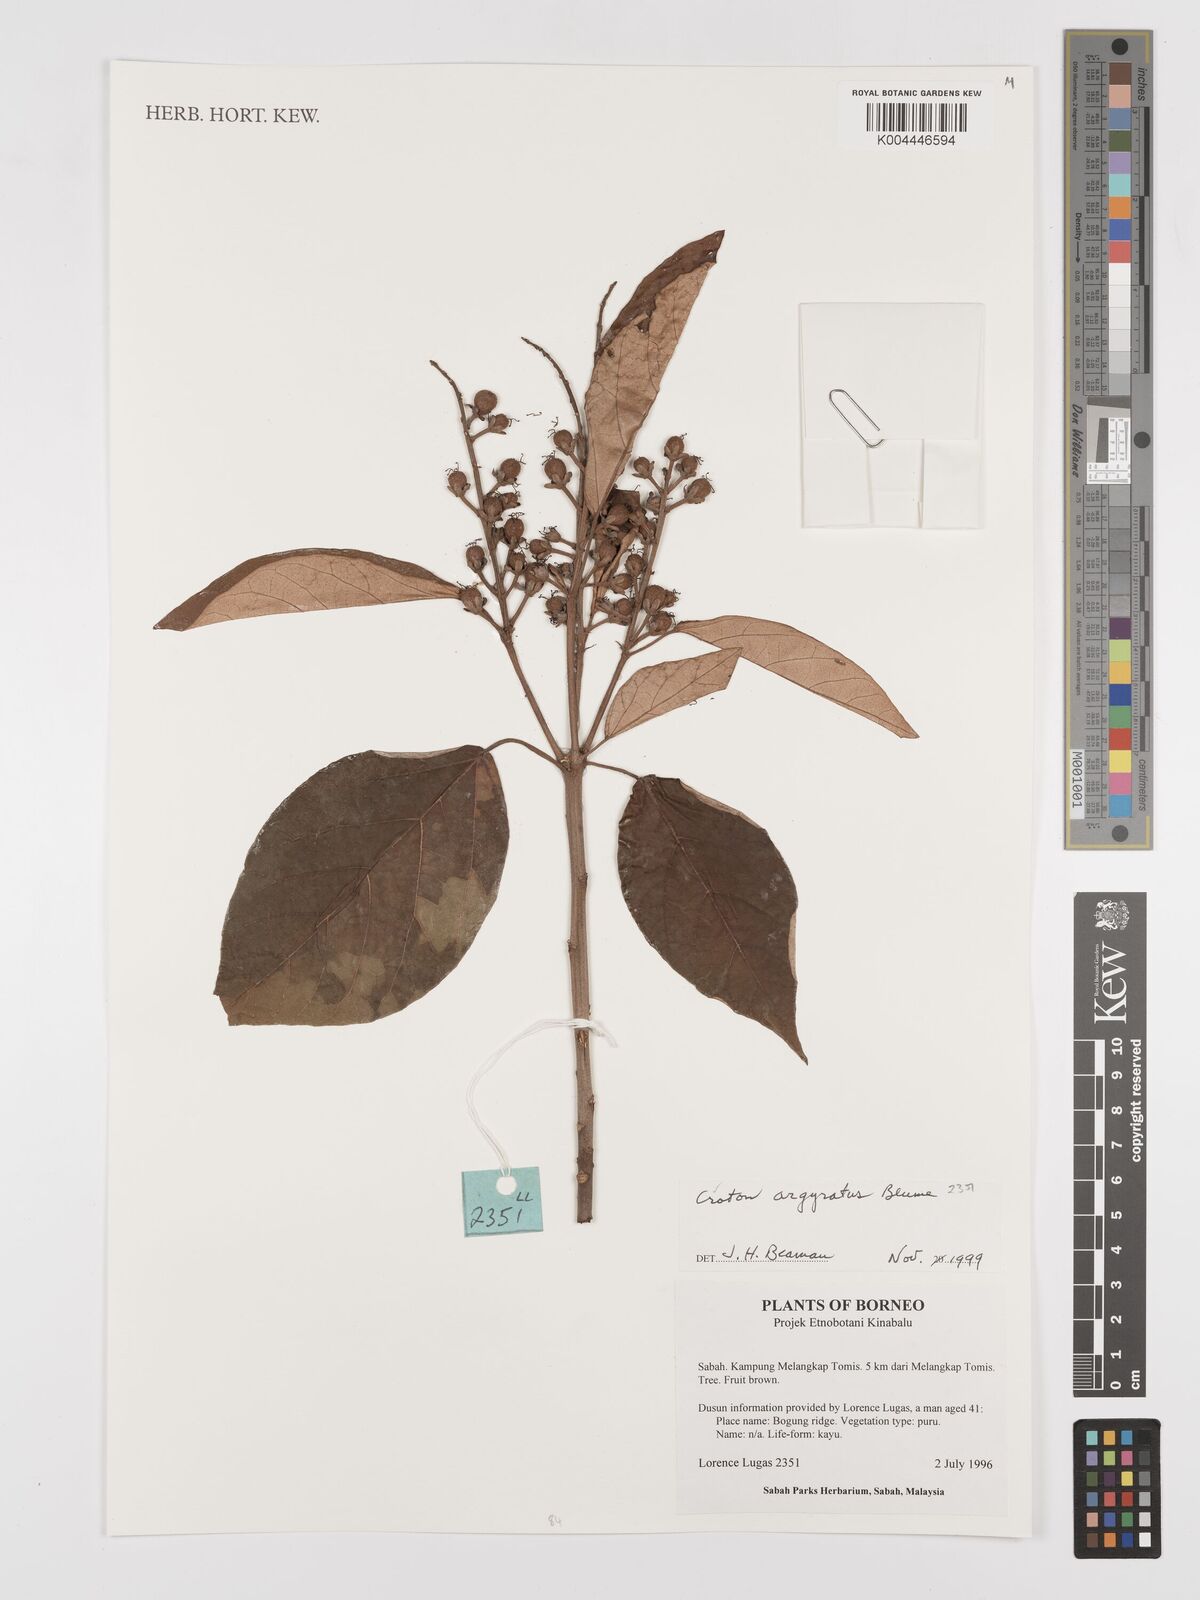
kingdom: Plantae
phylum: Tracheophyta
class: Magnoliopsida
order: Malpighiales
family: Euphorbiaceae
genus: Croton
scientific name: Croton argyratus
